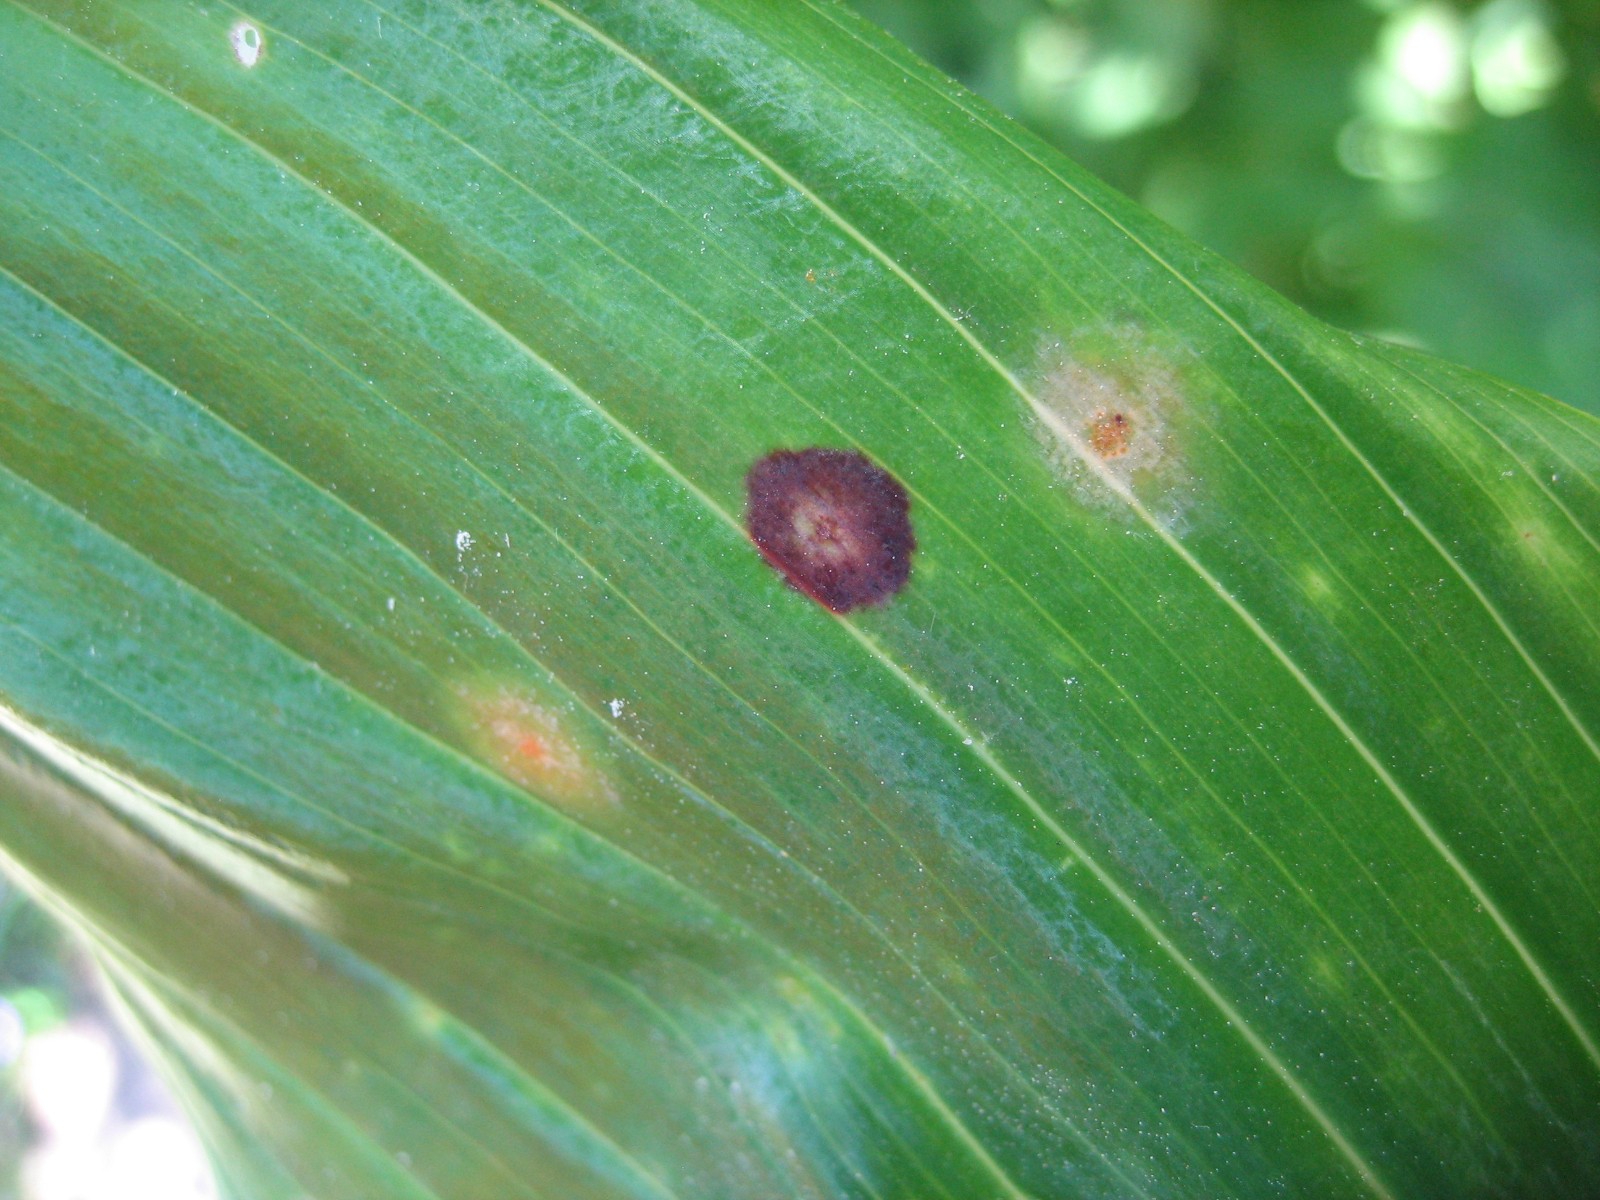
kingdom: Fungi
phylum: Basidiomycota
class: Pucciniomycetes
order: Pucciniales
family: Pucciniaceae
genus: Puccinia
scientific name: Puccinia sessilis
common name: Arum rust
